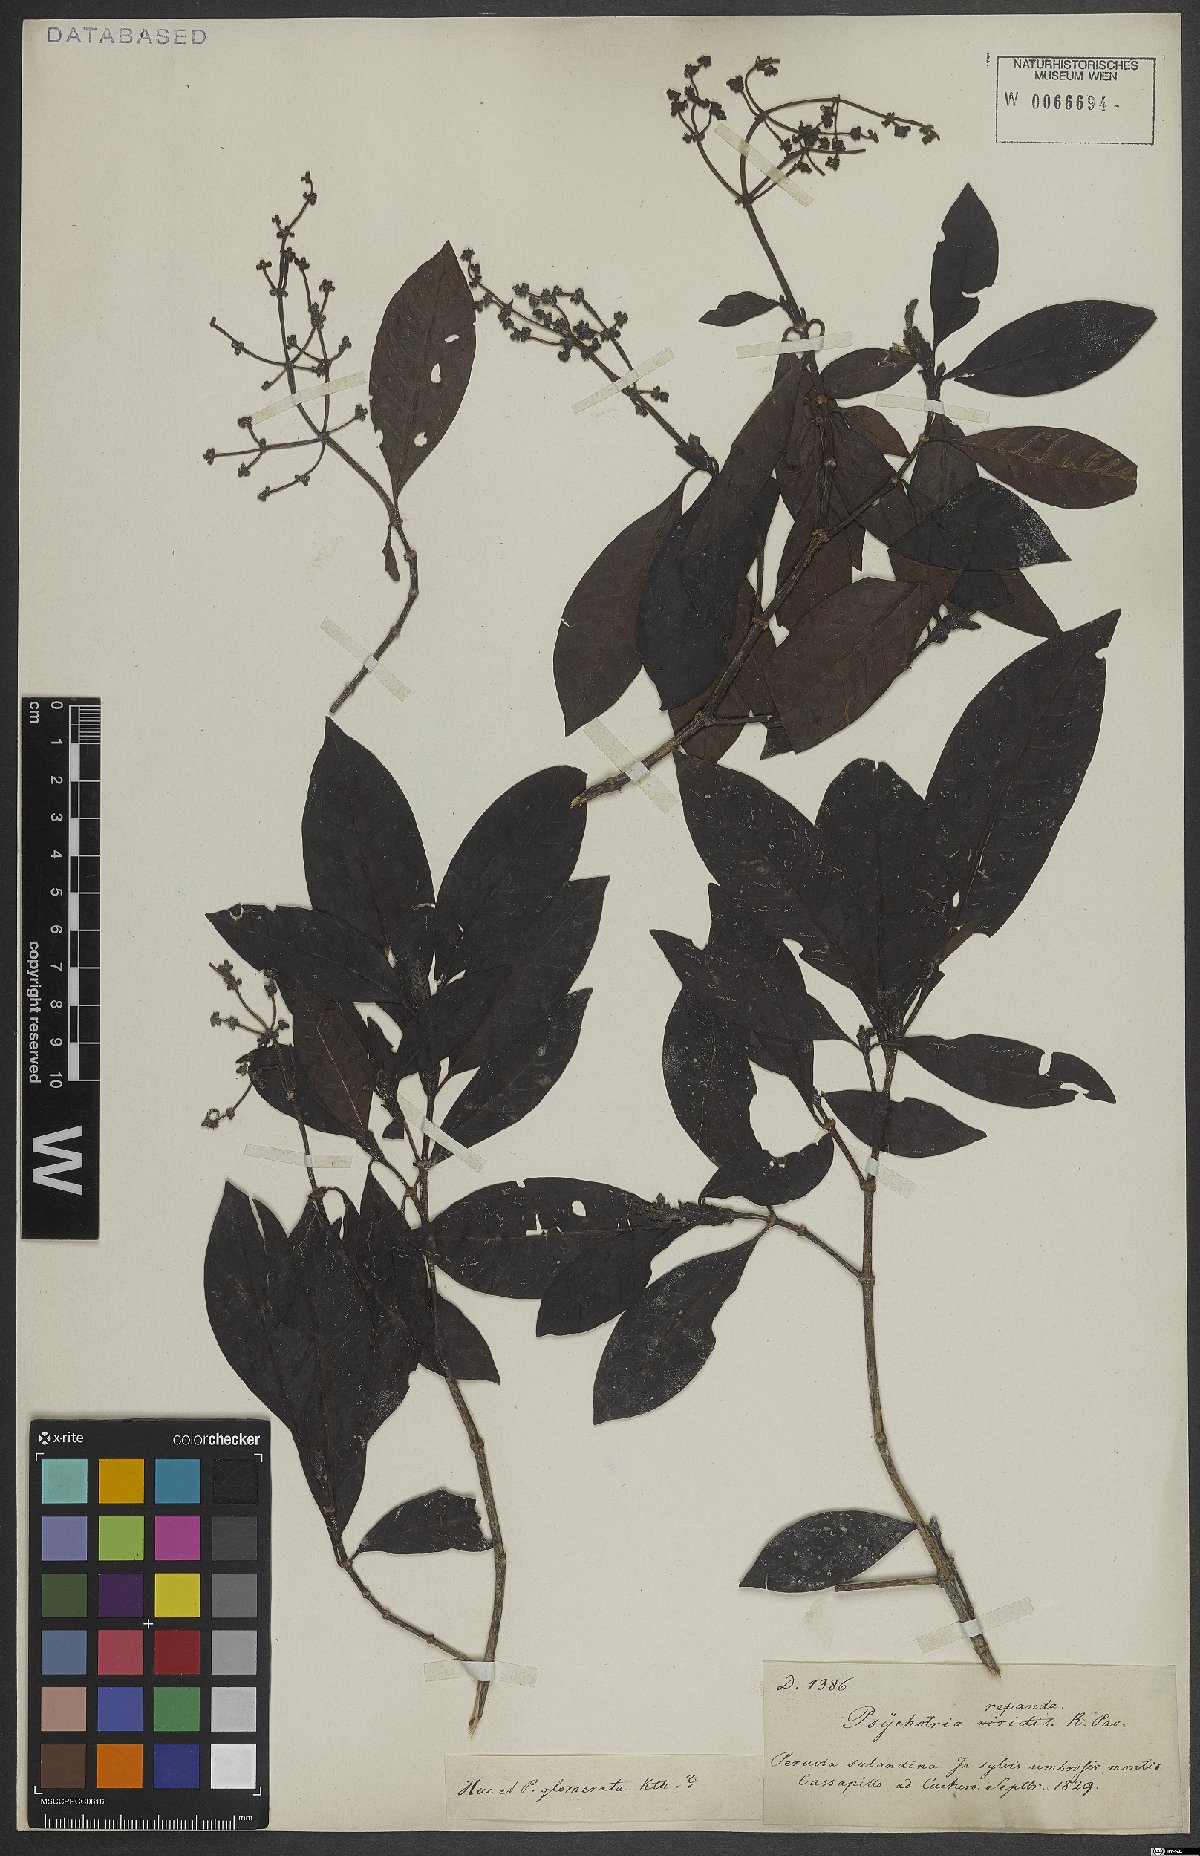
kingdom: Plantae
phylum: Tracheophyta
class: Magnoliopsida
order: Gentianales
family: Rubiaceae
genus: Psychotria
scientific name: Psychotria repanda
